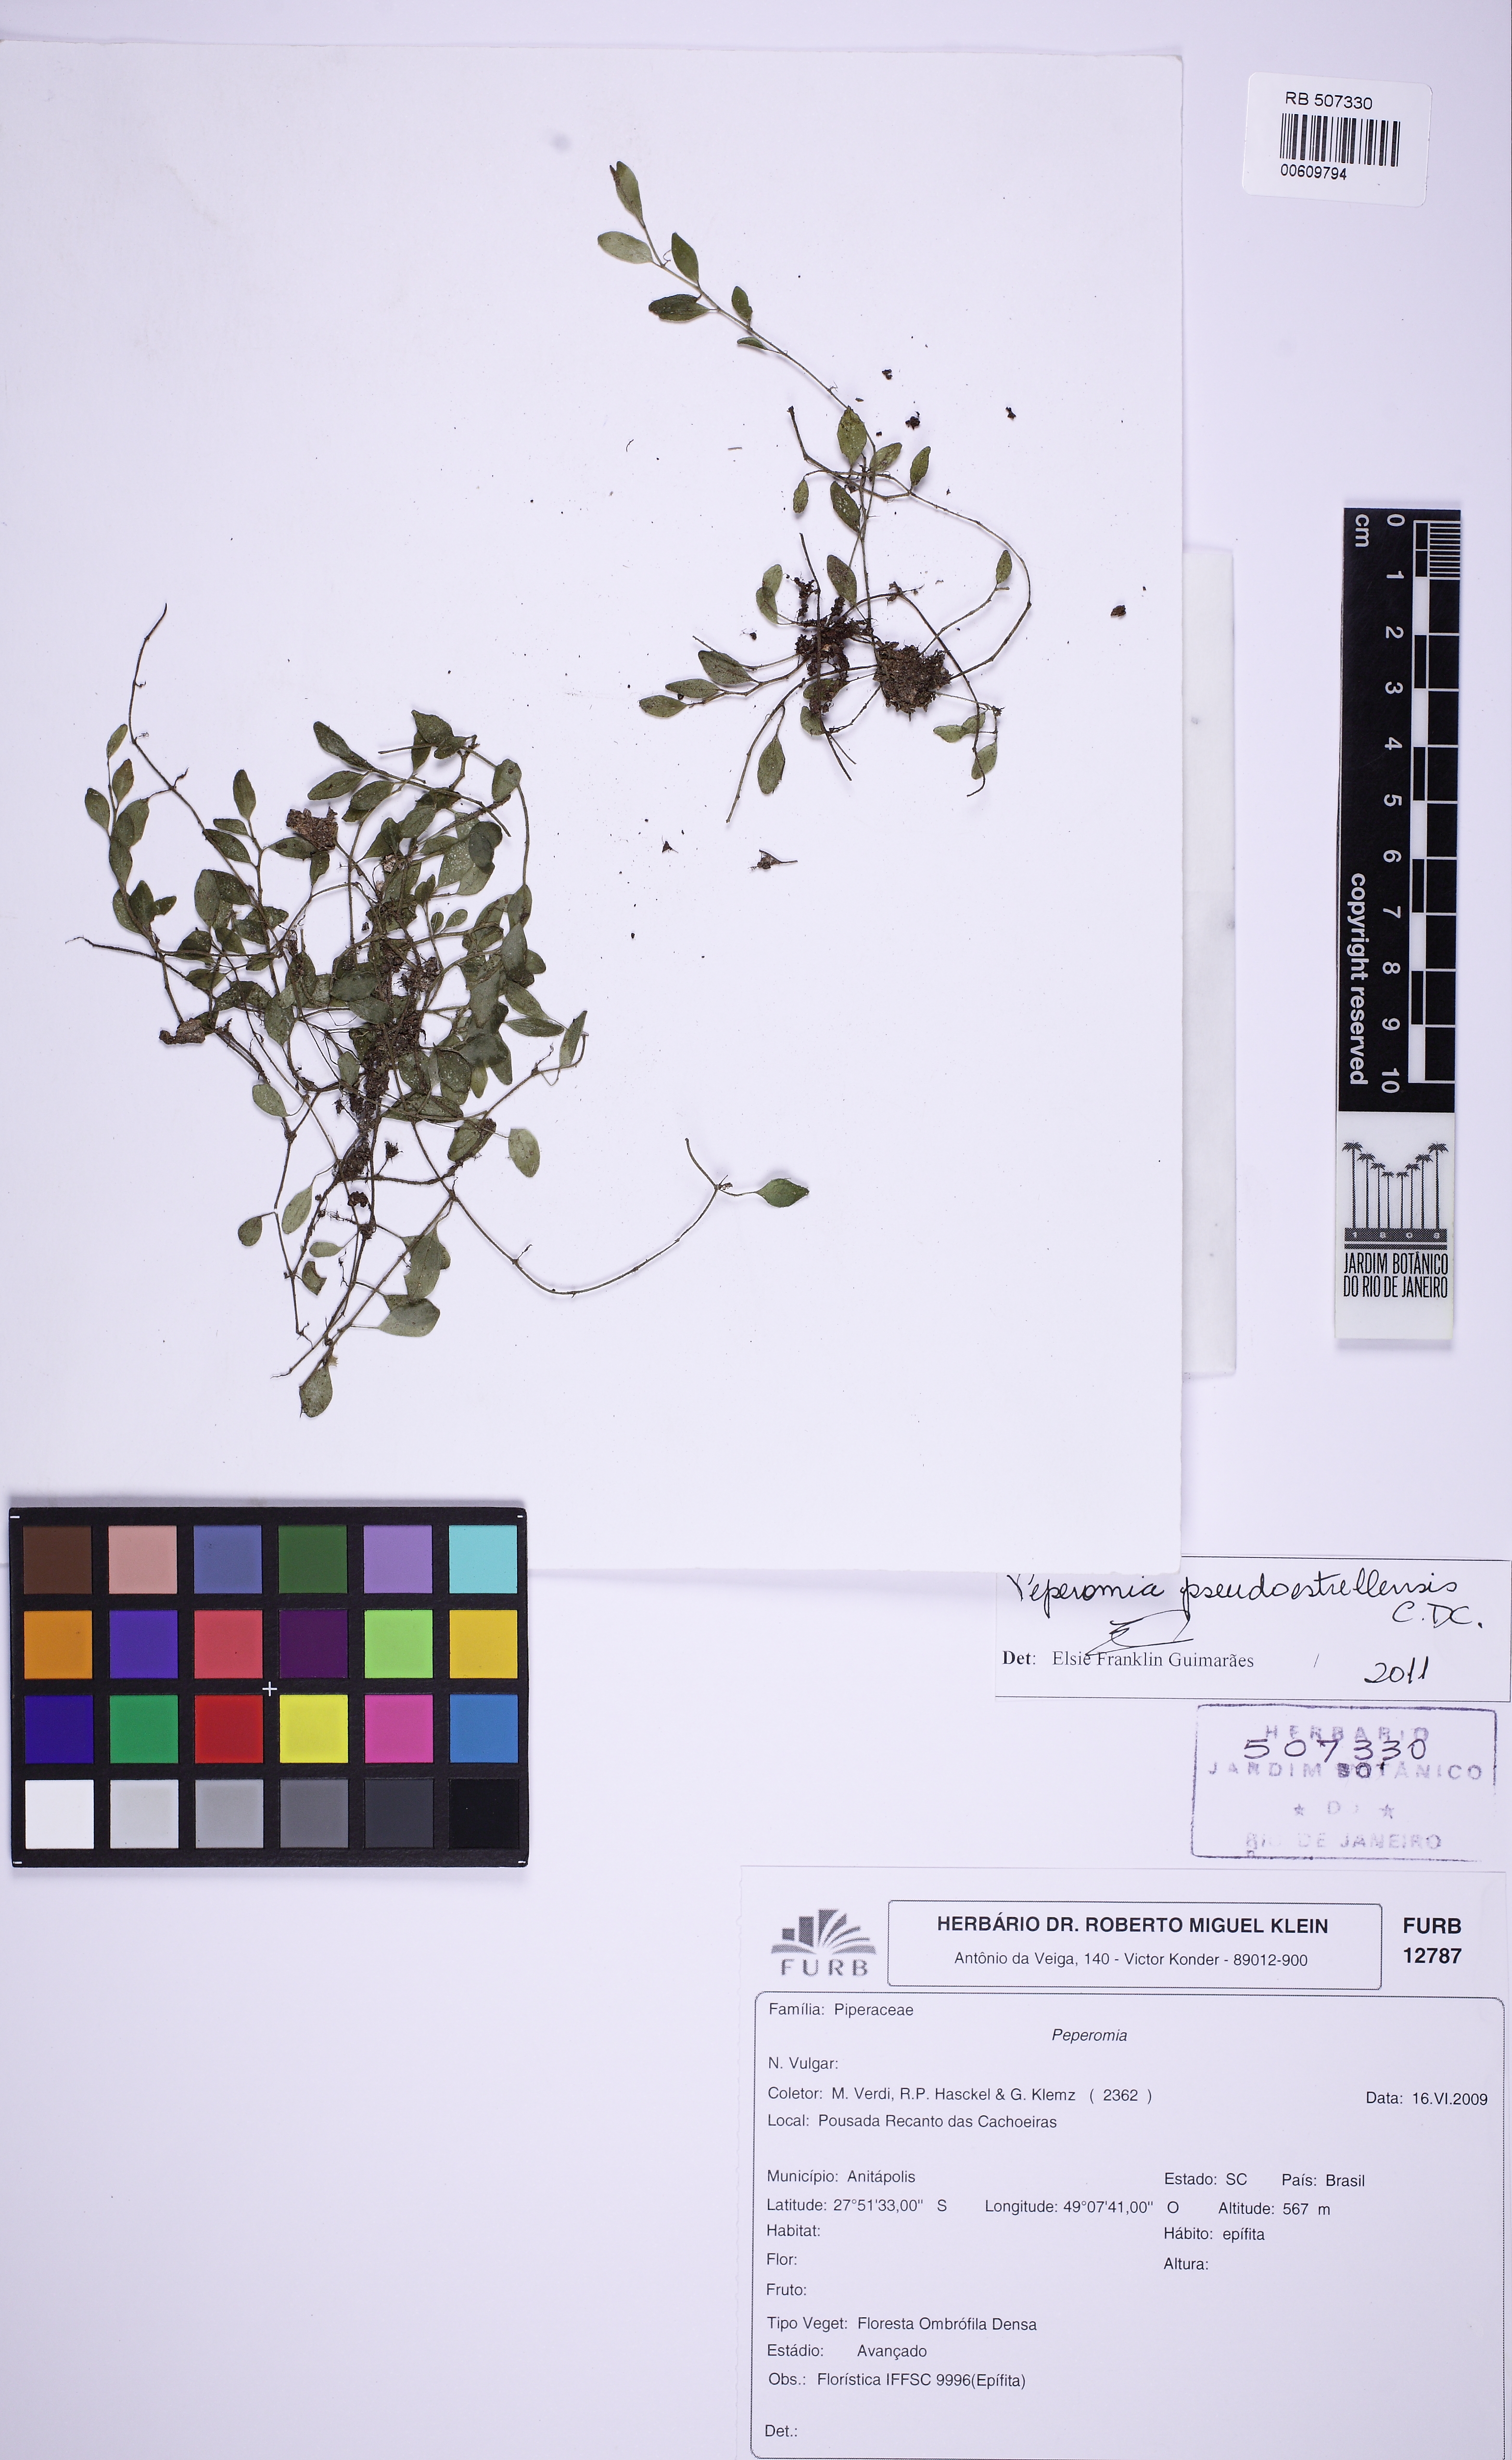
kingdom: Plantae
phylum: Tracheophyta
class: Magnoliopsida
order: Piperales
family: Piperaceae
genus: Peperomia
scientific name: Peperomia pseudoestrellensis
